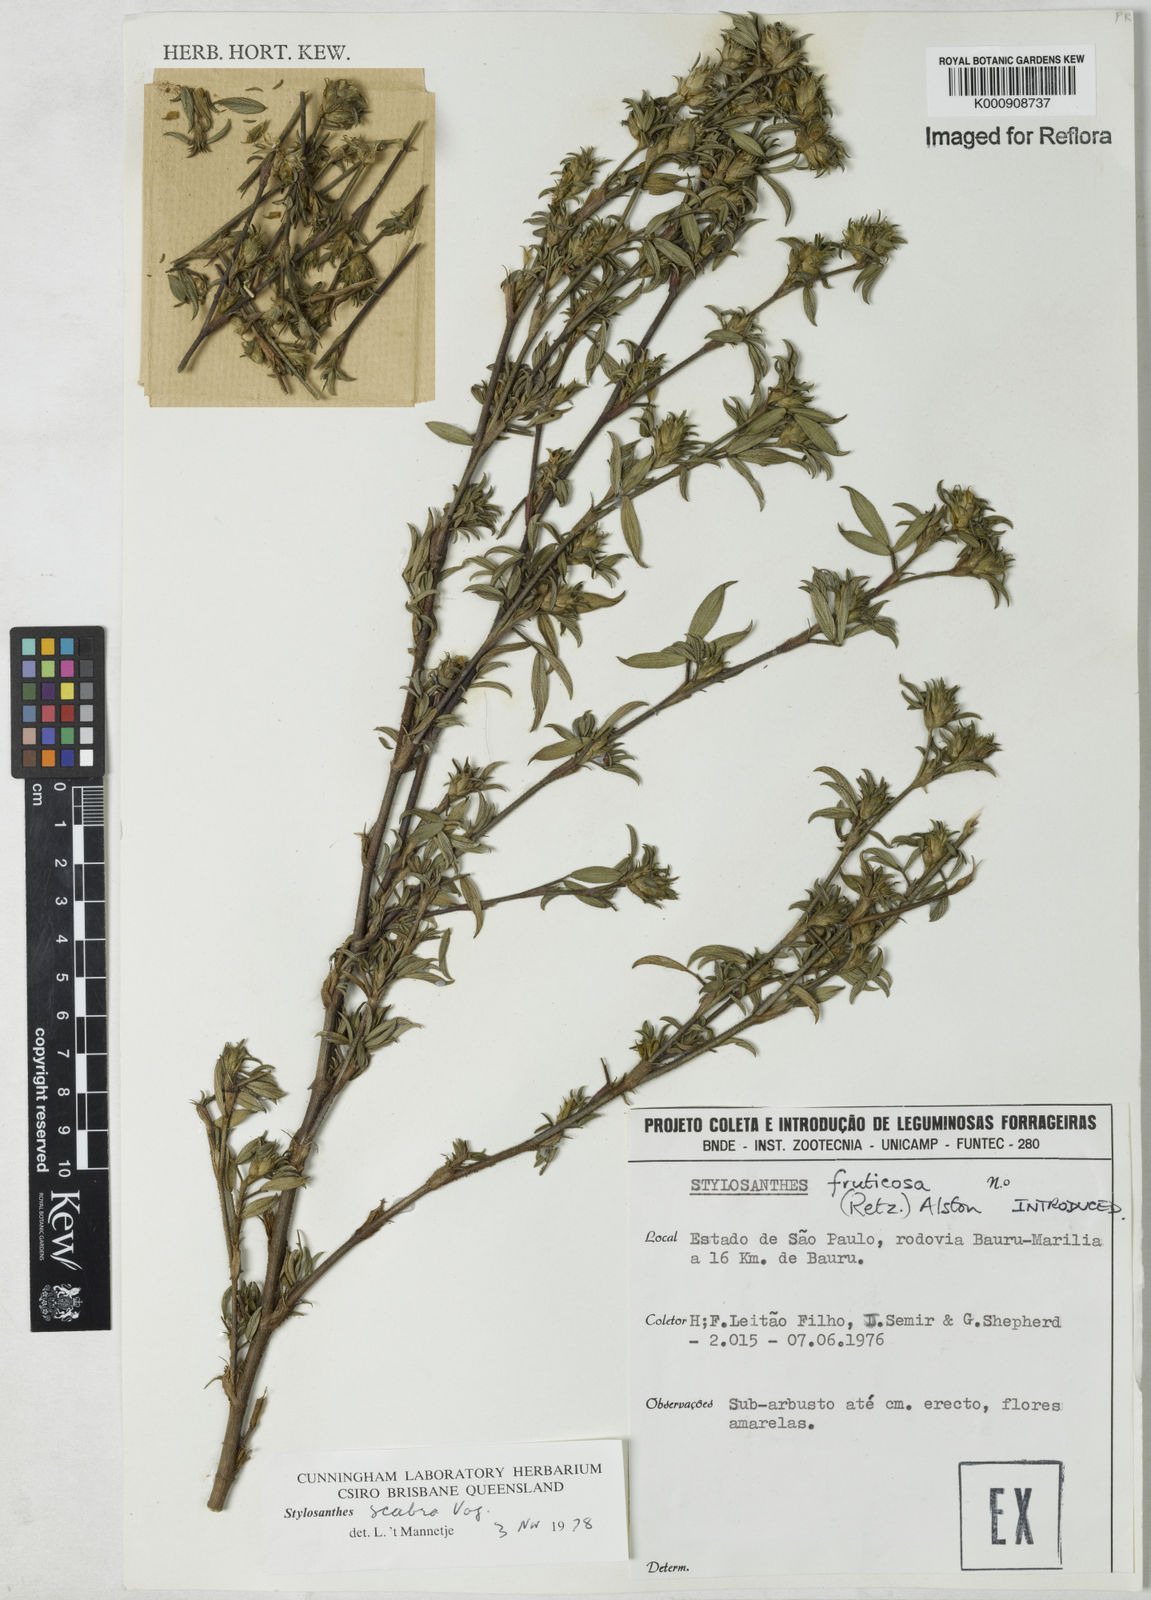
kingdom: Plantae
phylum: Tracheophyta
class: Magnoliopsida
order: Fabales
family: Fabaceae
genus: Stylosanthes
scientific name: Stylosanthes scabra
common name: Pencilflower
